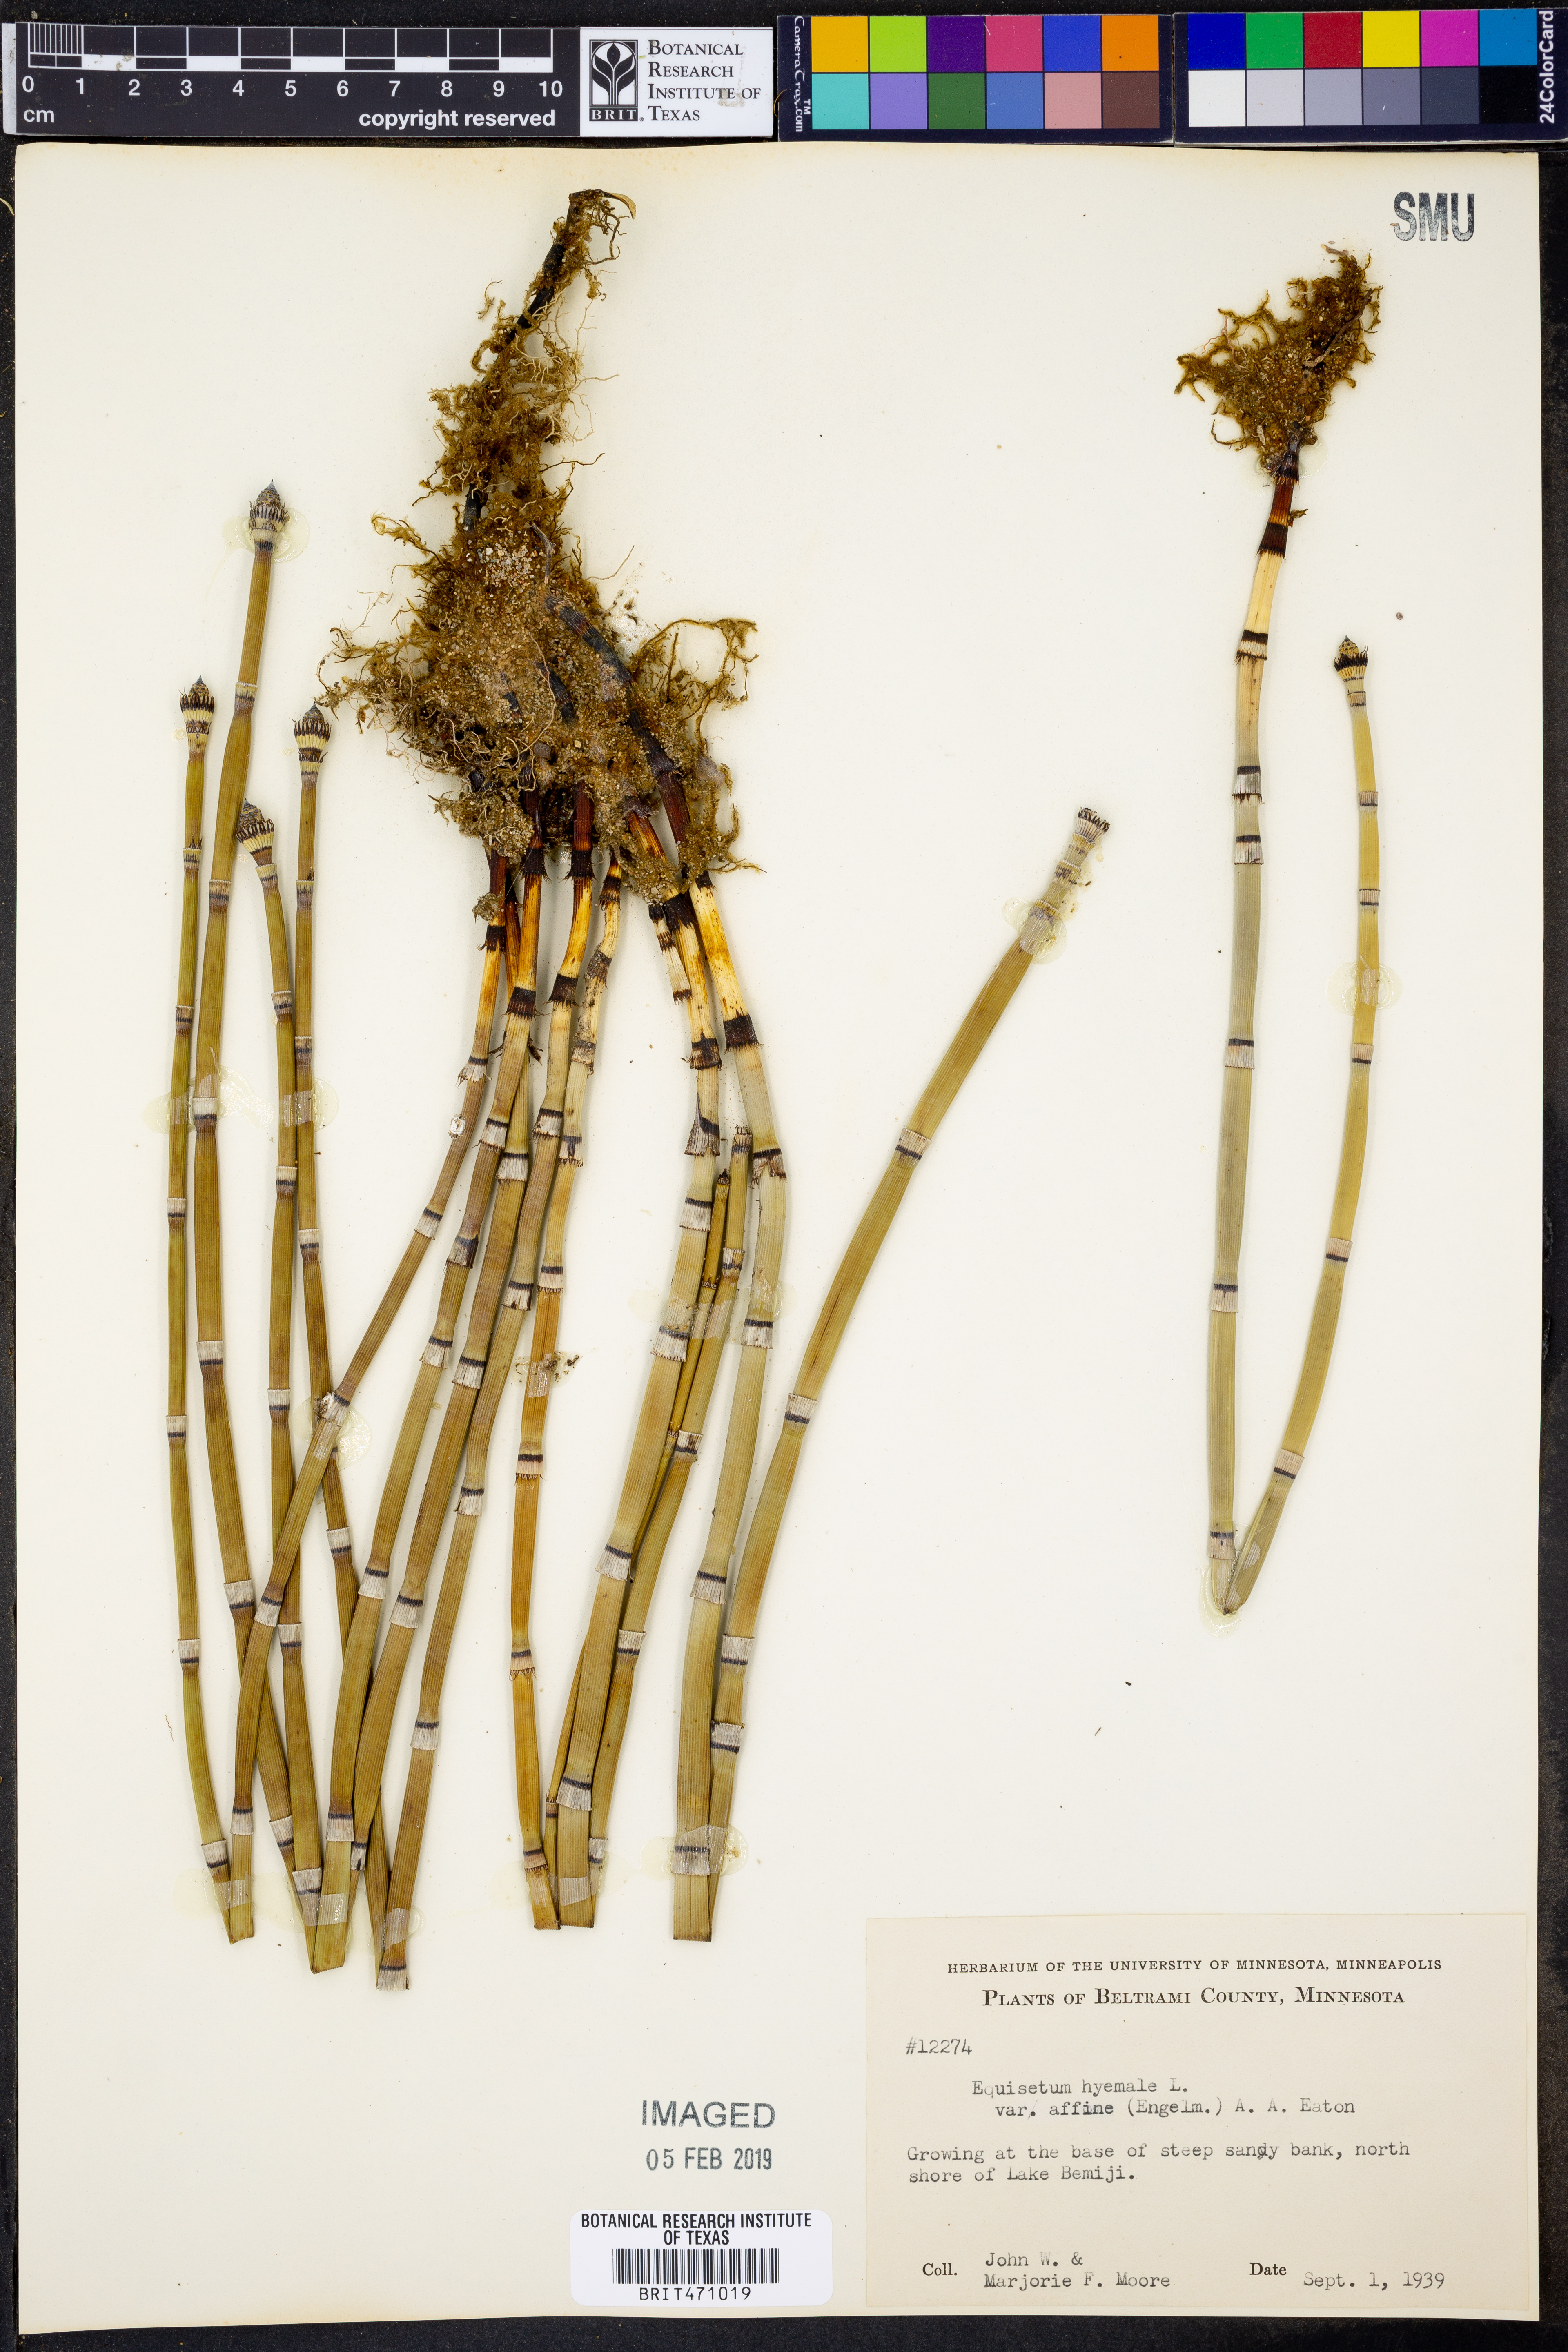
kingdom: Plantae
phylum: Tracheophyta
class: Polypodiopsida
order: Equisetales
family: Equisetaceae
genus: Equisetum
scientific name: Equisetum praealtum
